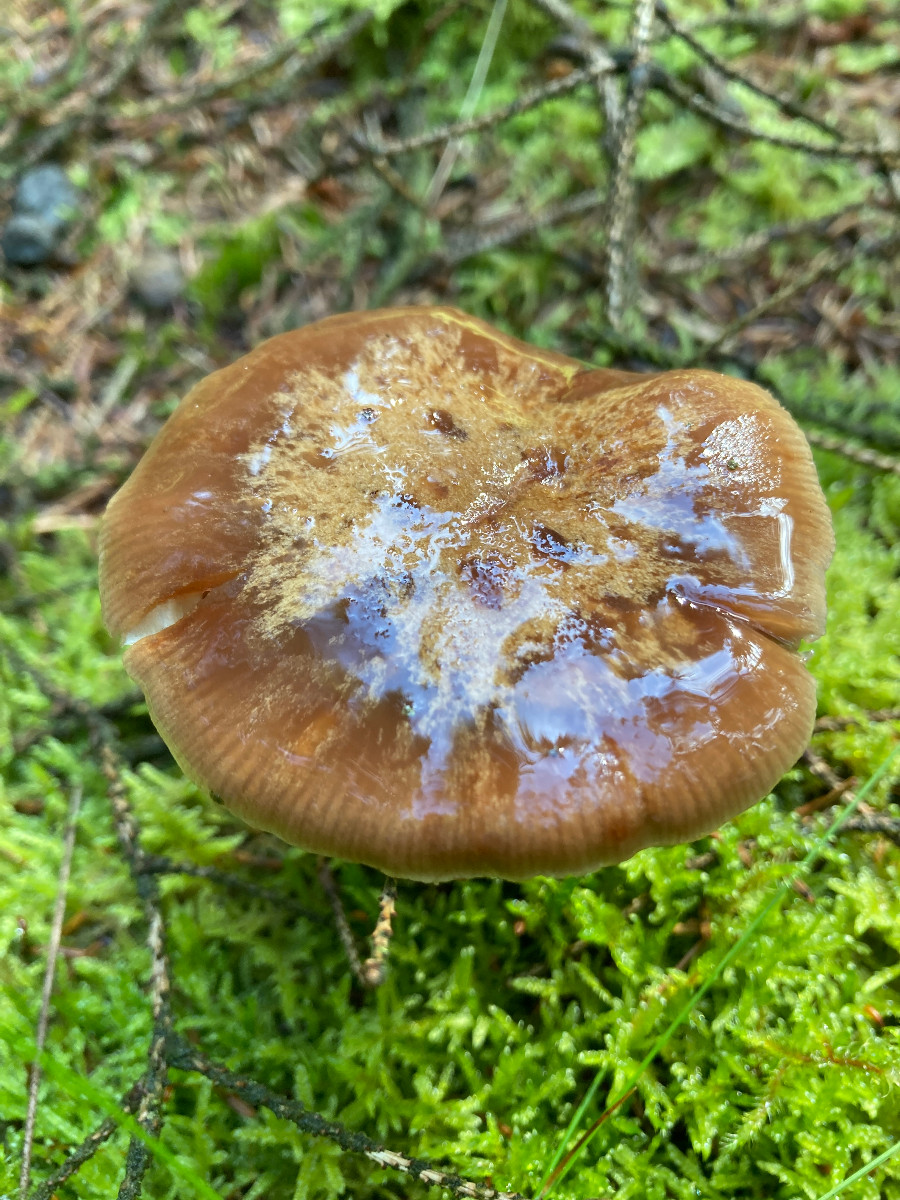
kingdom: Fungi
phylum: Basidiomycota
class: Agaricomycetes
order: Agaricales
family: Cortinariaceae
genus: Thaxterogaster
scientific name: Thaxterogaster sphagnophilus
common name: vandplettet slørhat
